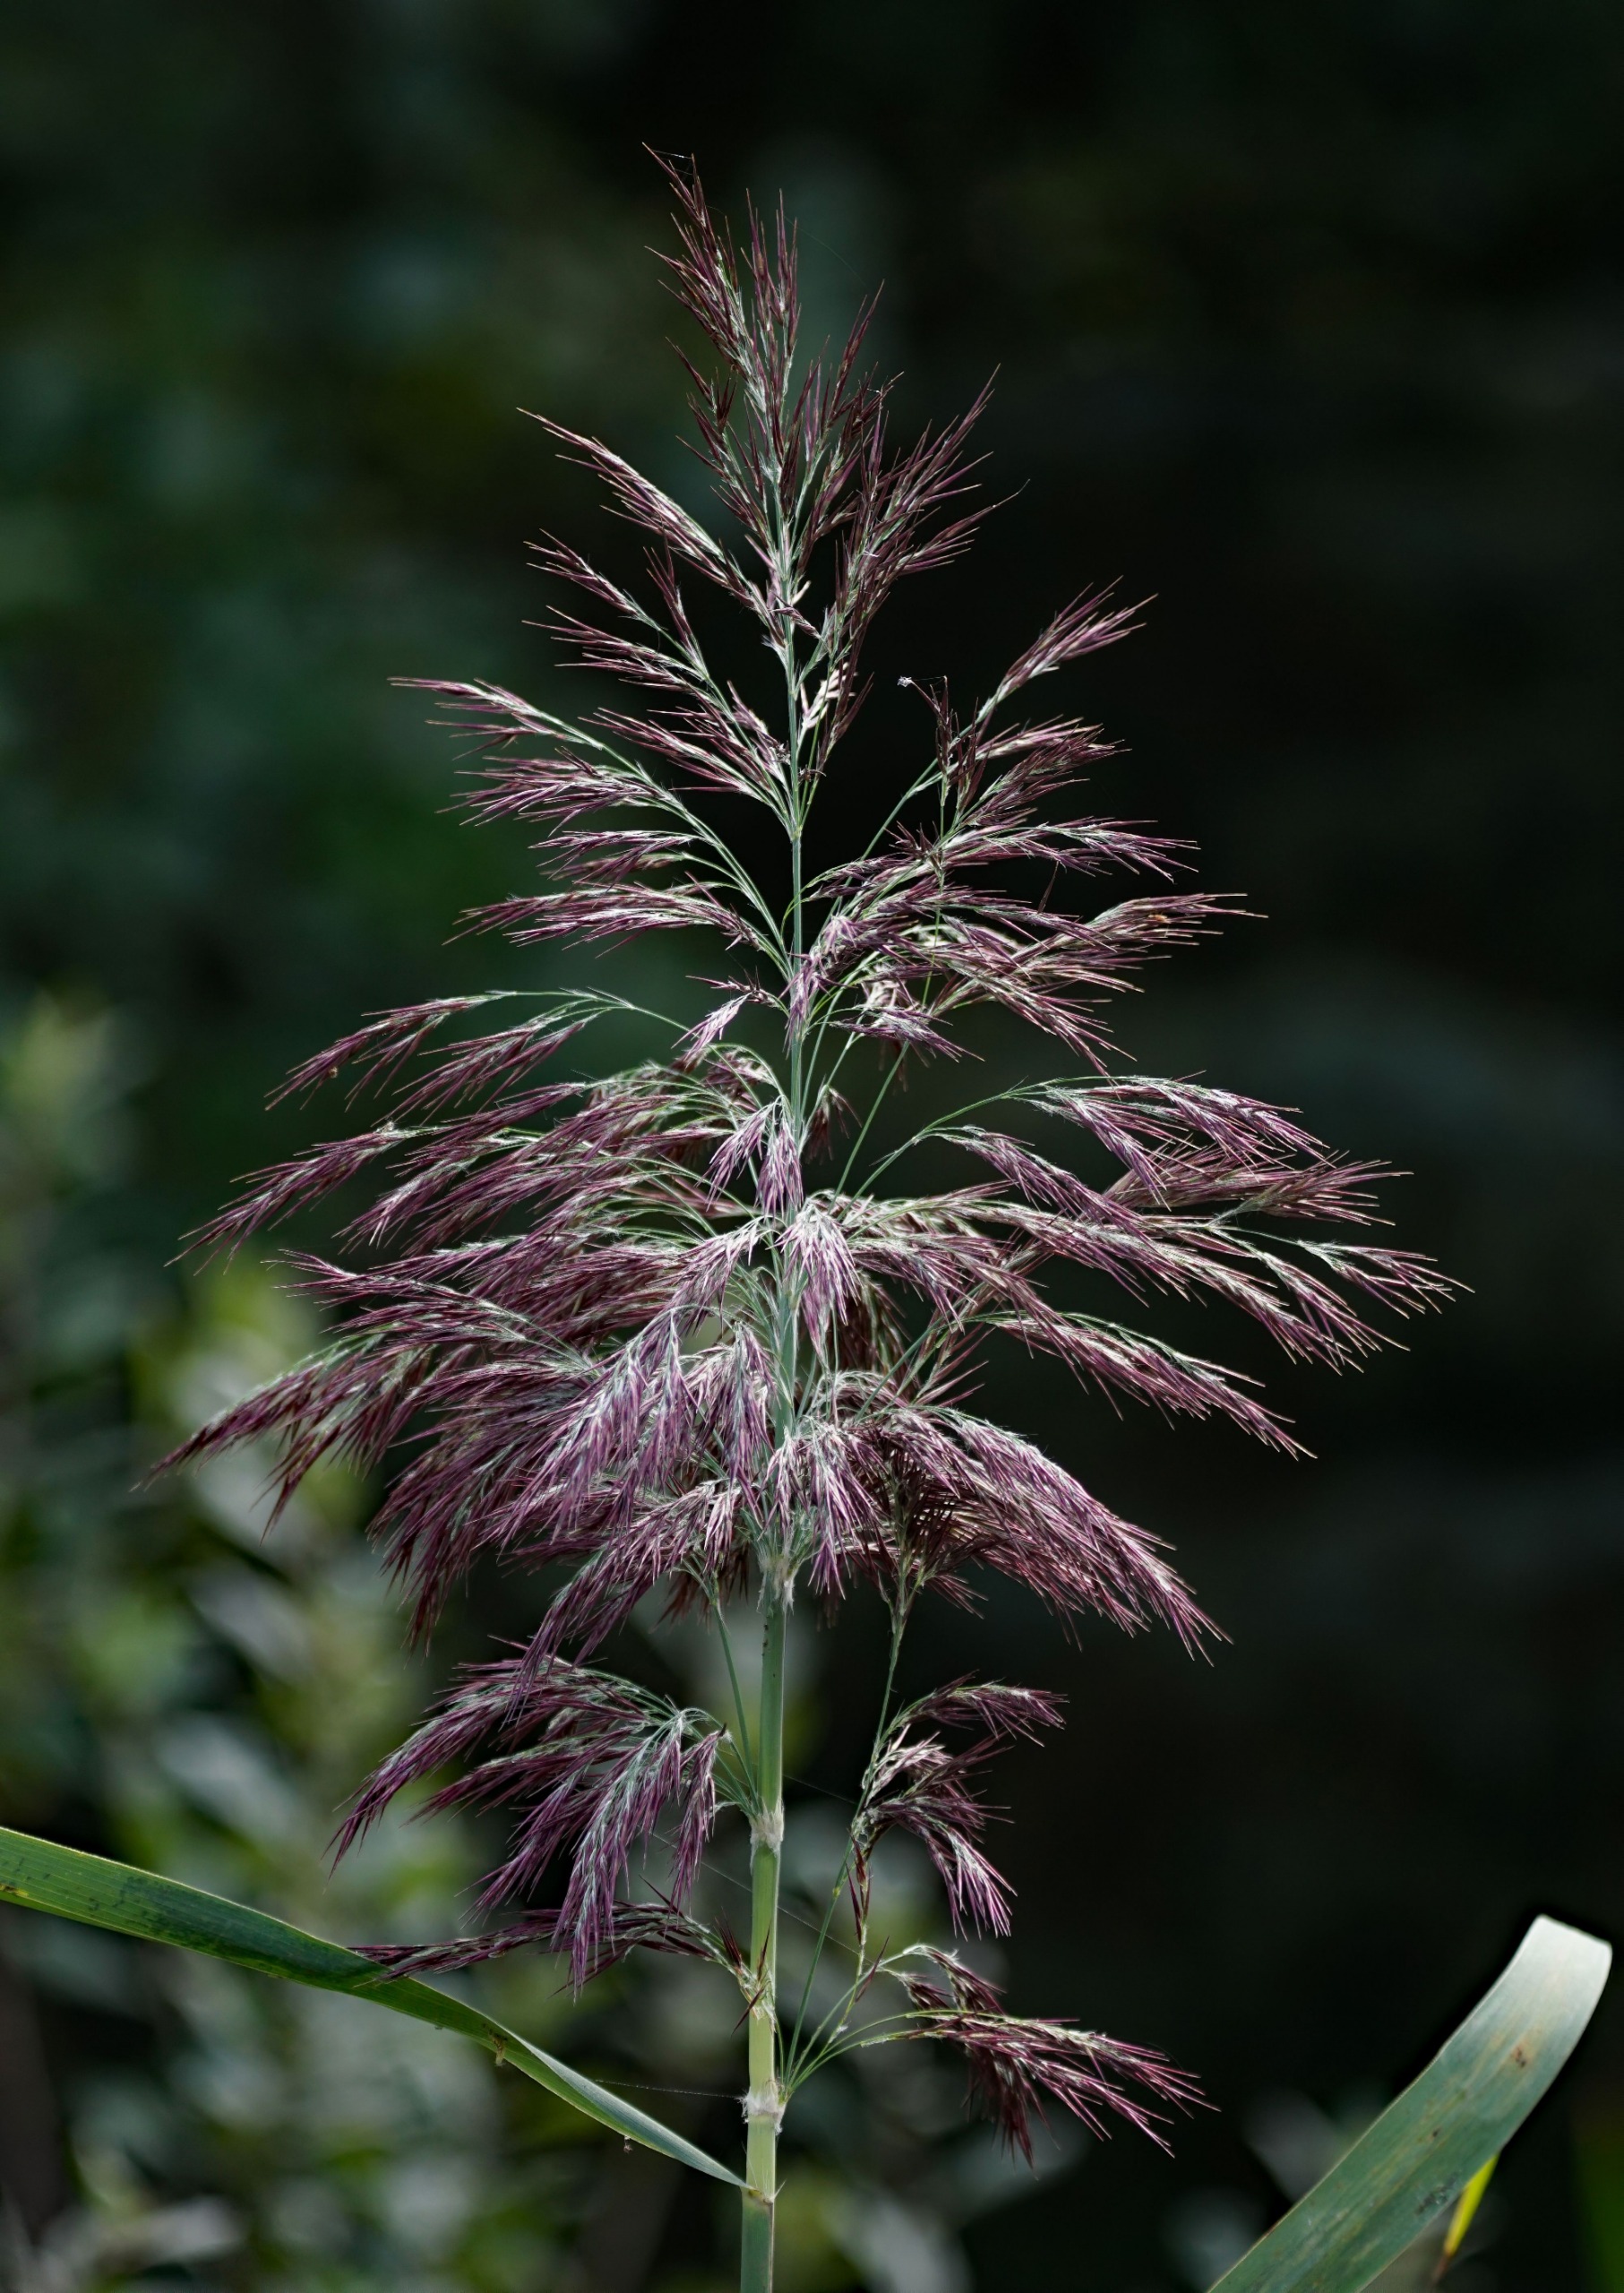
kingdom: Plantae
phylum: Tracheophyta
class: Liliopsida
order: Poales
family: Poaceae
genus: Phragmites
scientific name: Phragmites australis
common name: Tagrør
